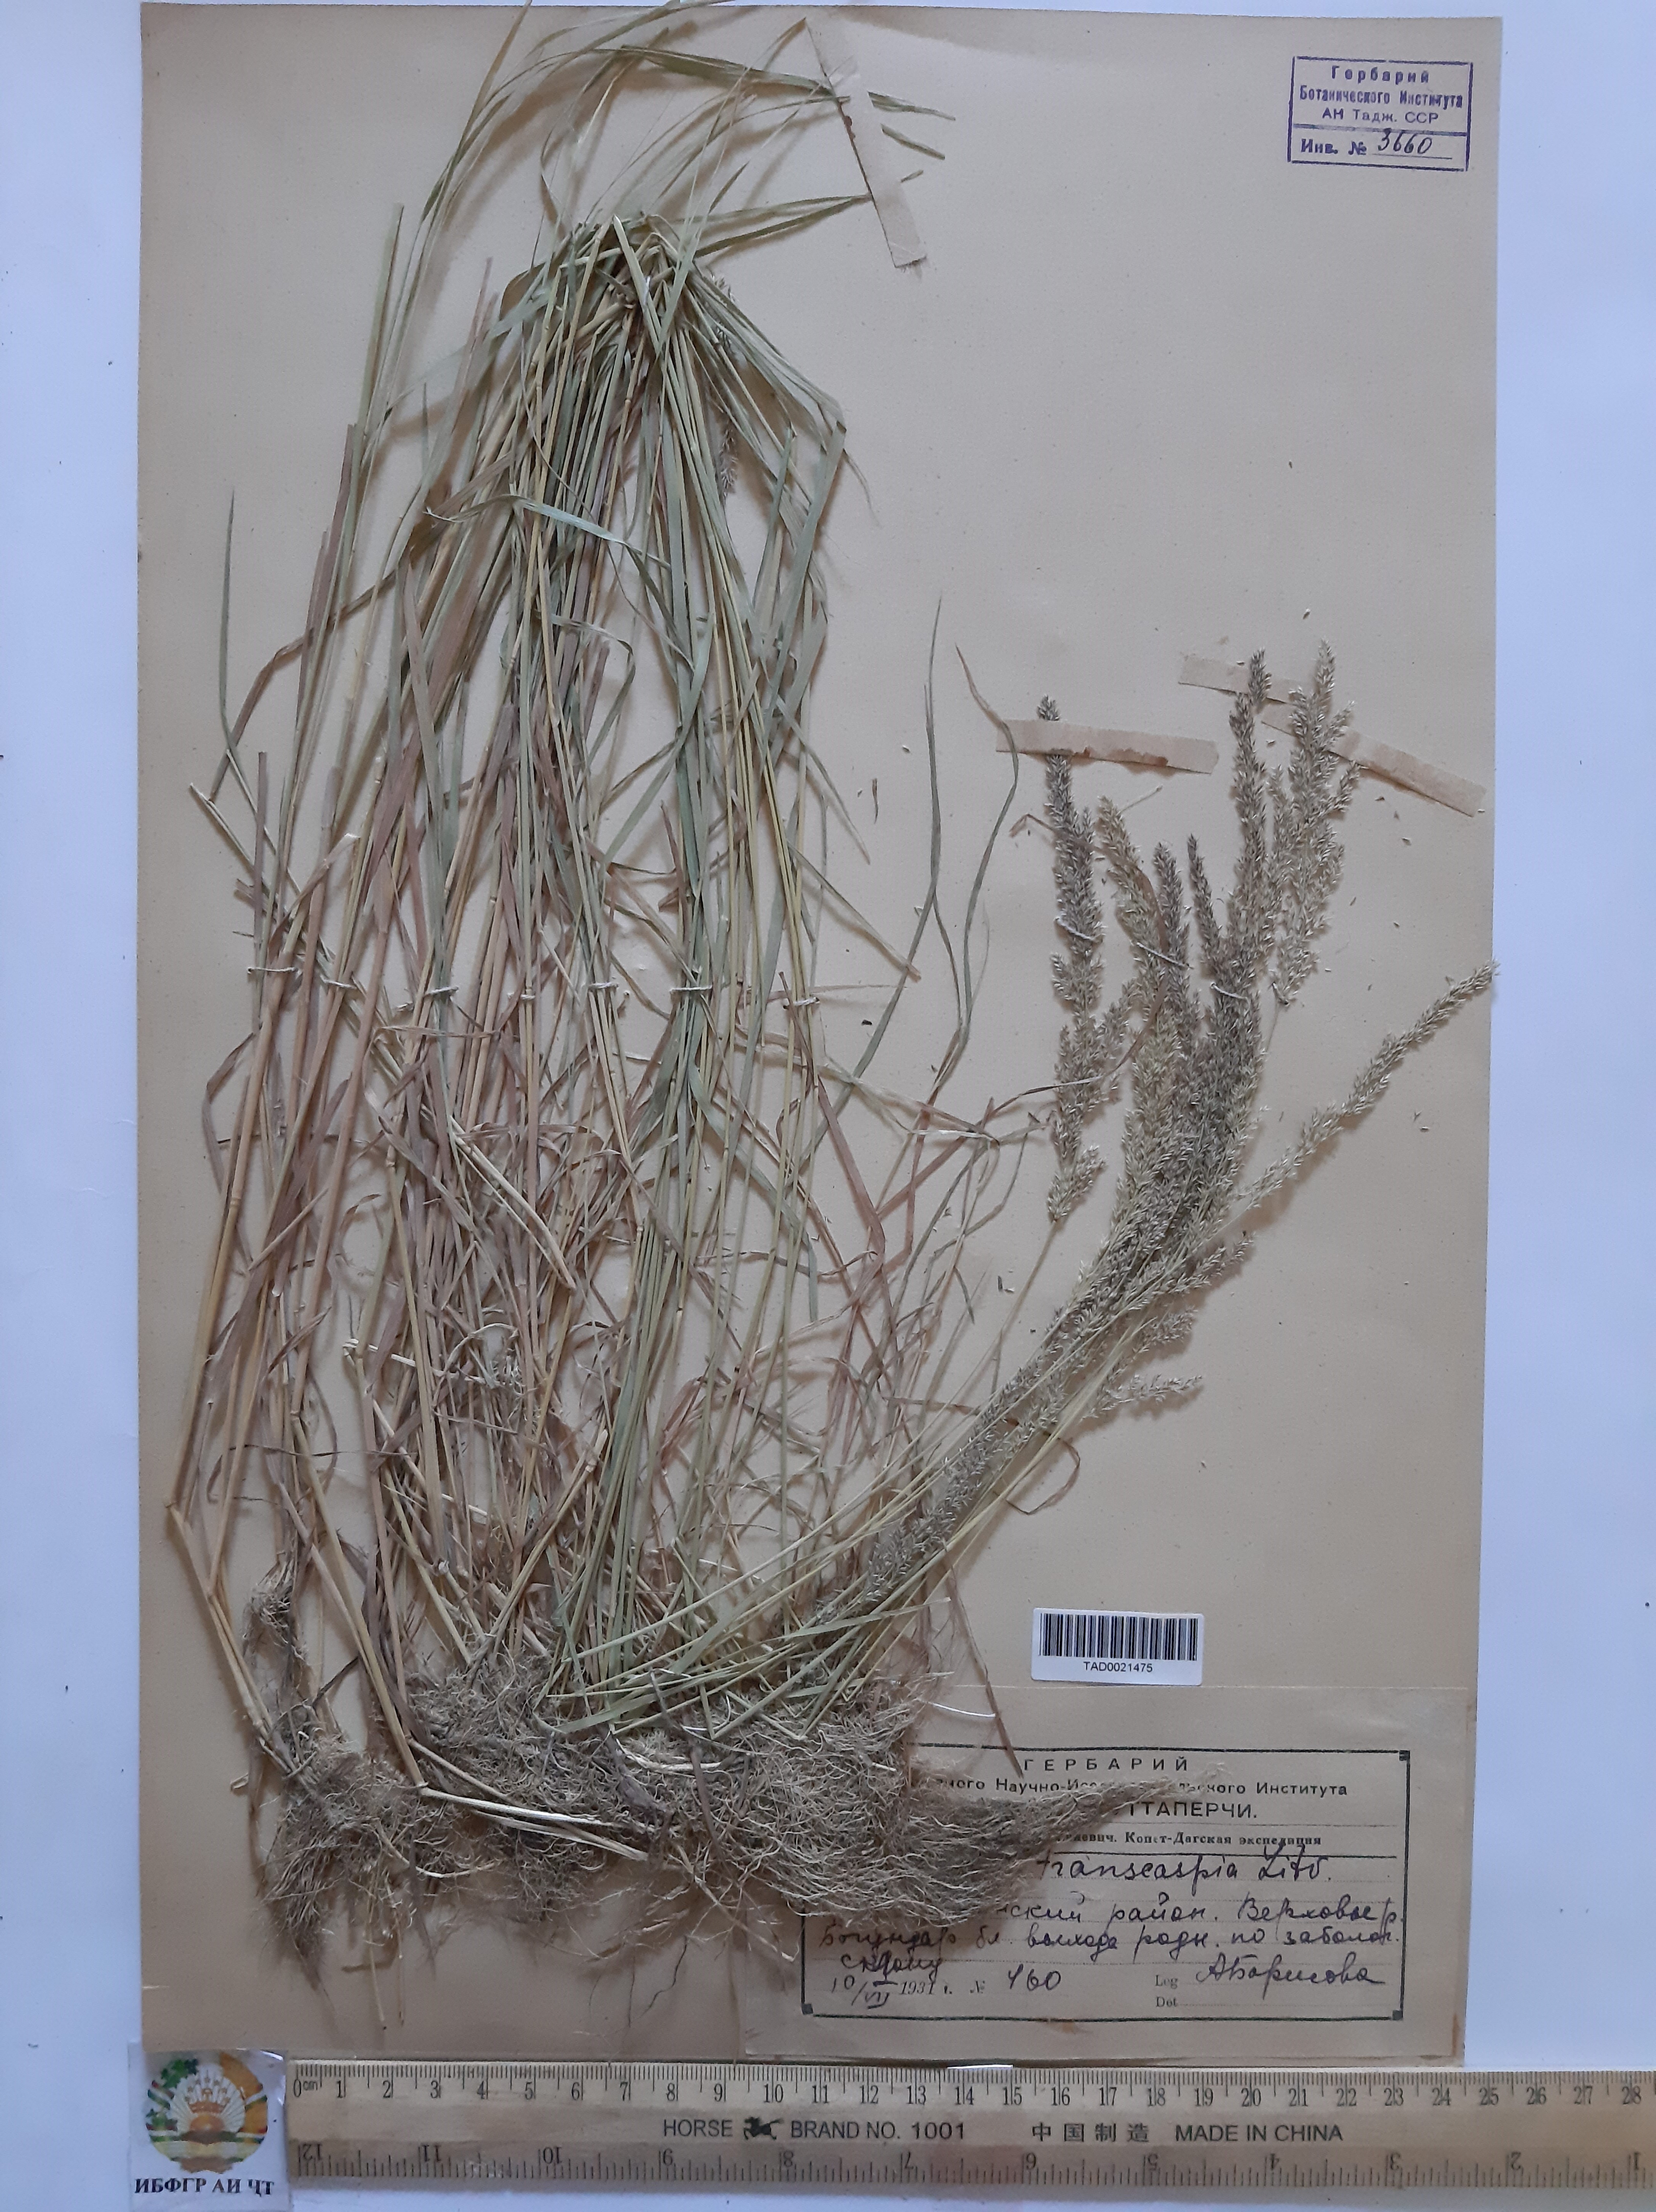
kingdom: Plantae
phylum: Tracheophyta
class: Liliopsida
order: Poales
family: Poaceae
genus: Agrostis
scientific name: Agrostis stolonifera
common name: Creeping bentgrass
